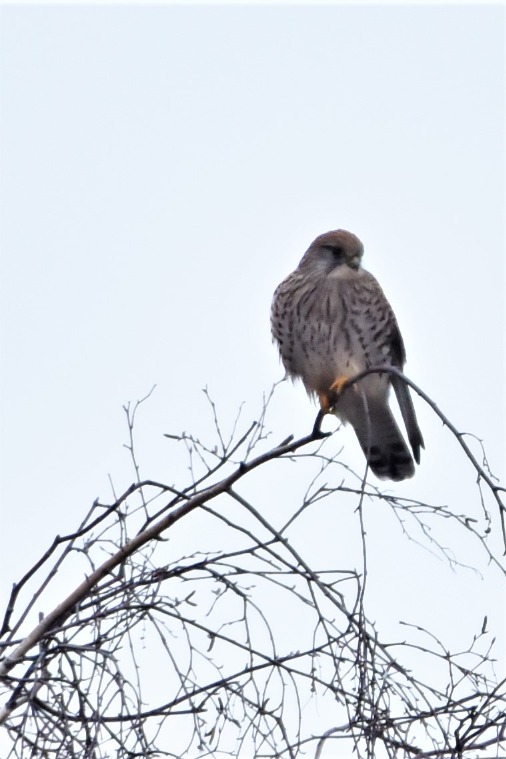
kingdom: Animalia
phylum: Chordata
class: Aves
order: Falconiformes
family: Falconidae
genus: Falco
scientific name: Falco tinnunculus
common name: Tårnfalk
